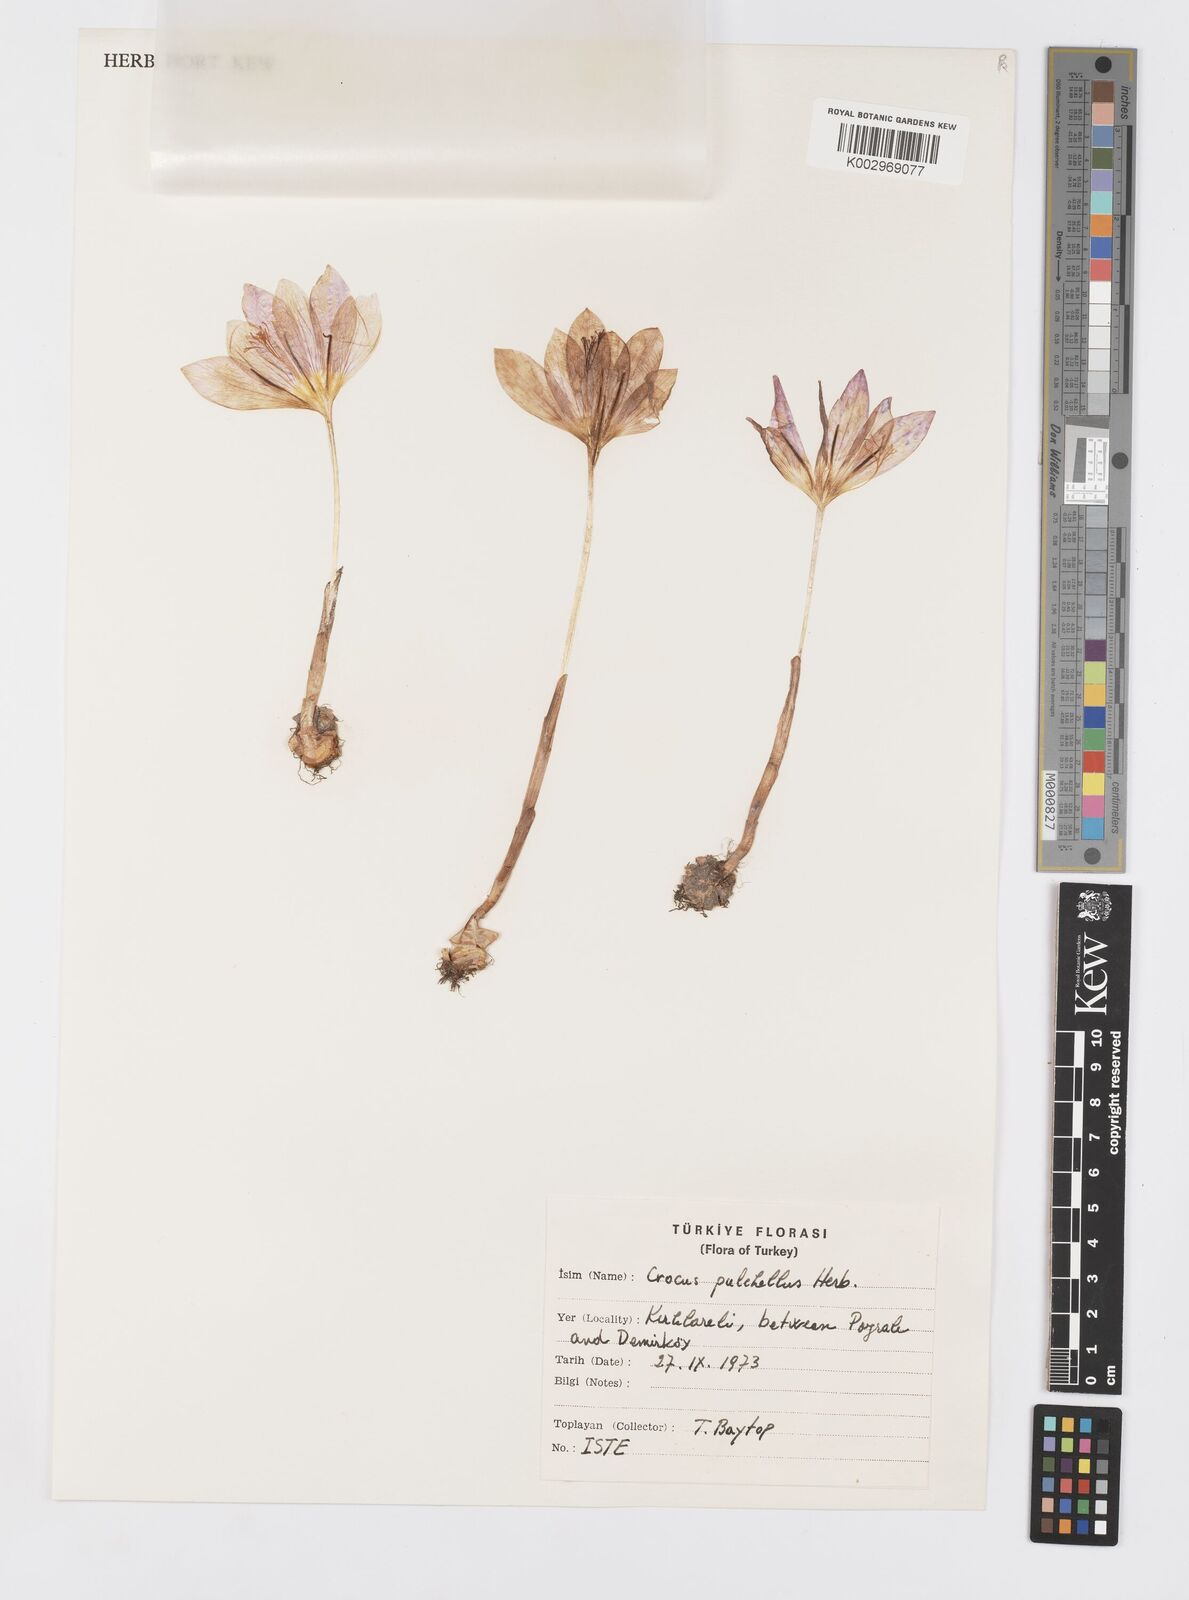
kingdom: Plantae
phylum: Tracheophyta
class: Liliopsida
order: Asparagales
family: Iridaceae
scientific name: Iridaceae
